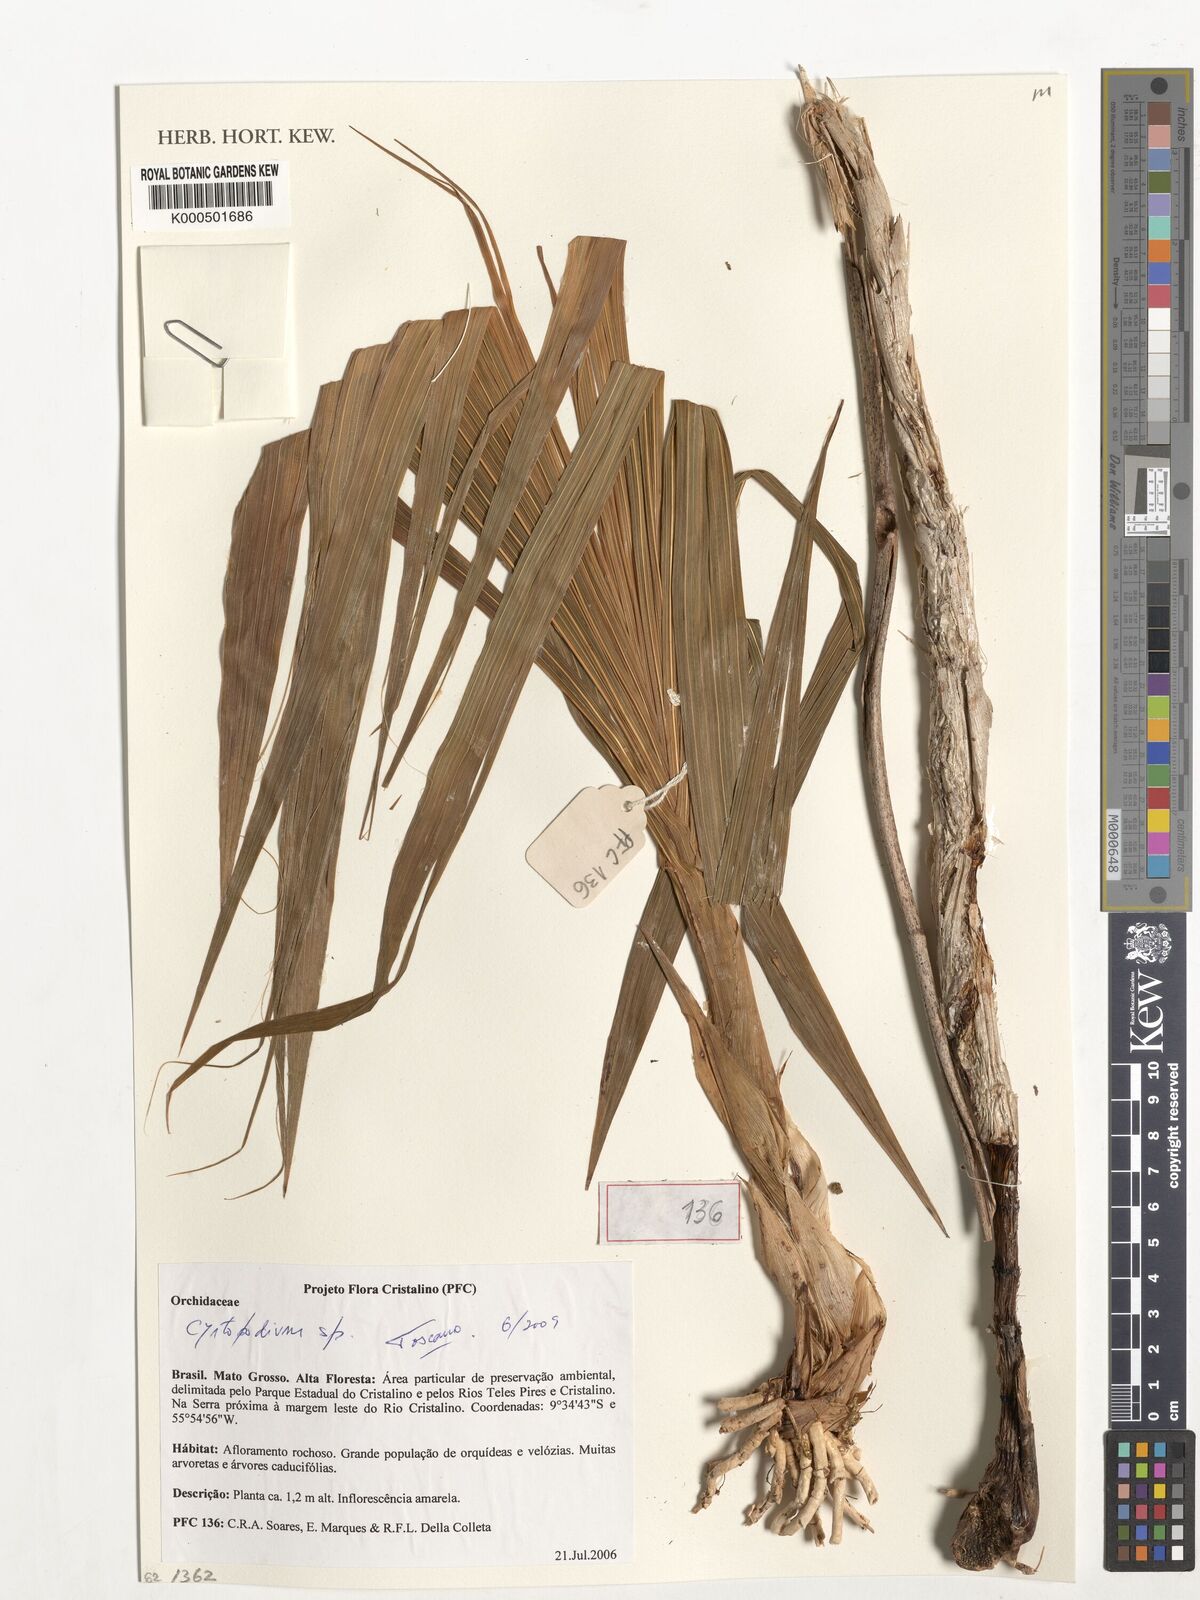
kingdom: Plantae
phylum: Tracheophyta
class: Liliopsida
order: Asparagales
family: Orchidaceae
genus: Cyrtopodium
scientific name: Cyrtopodium
